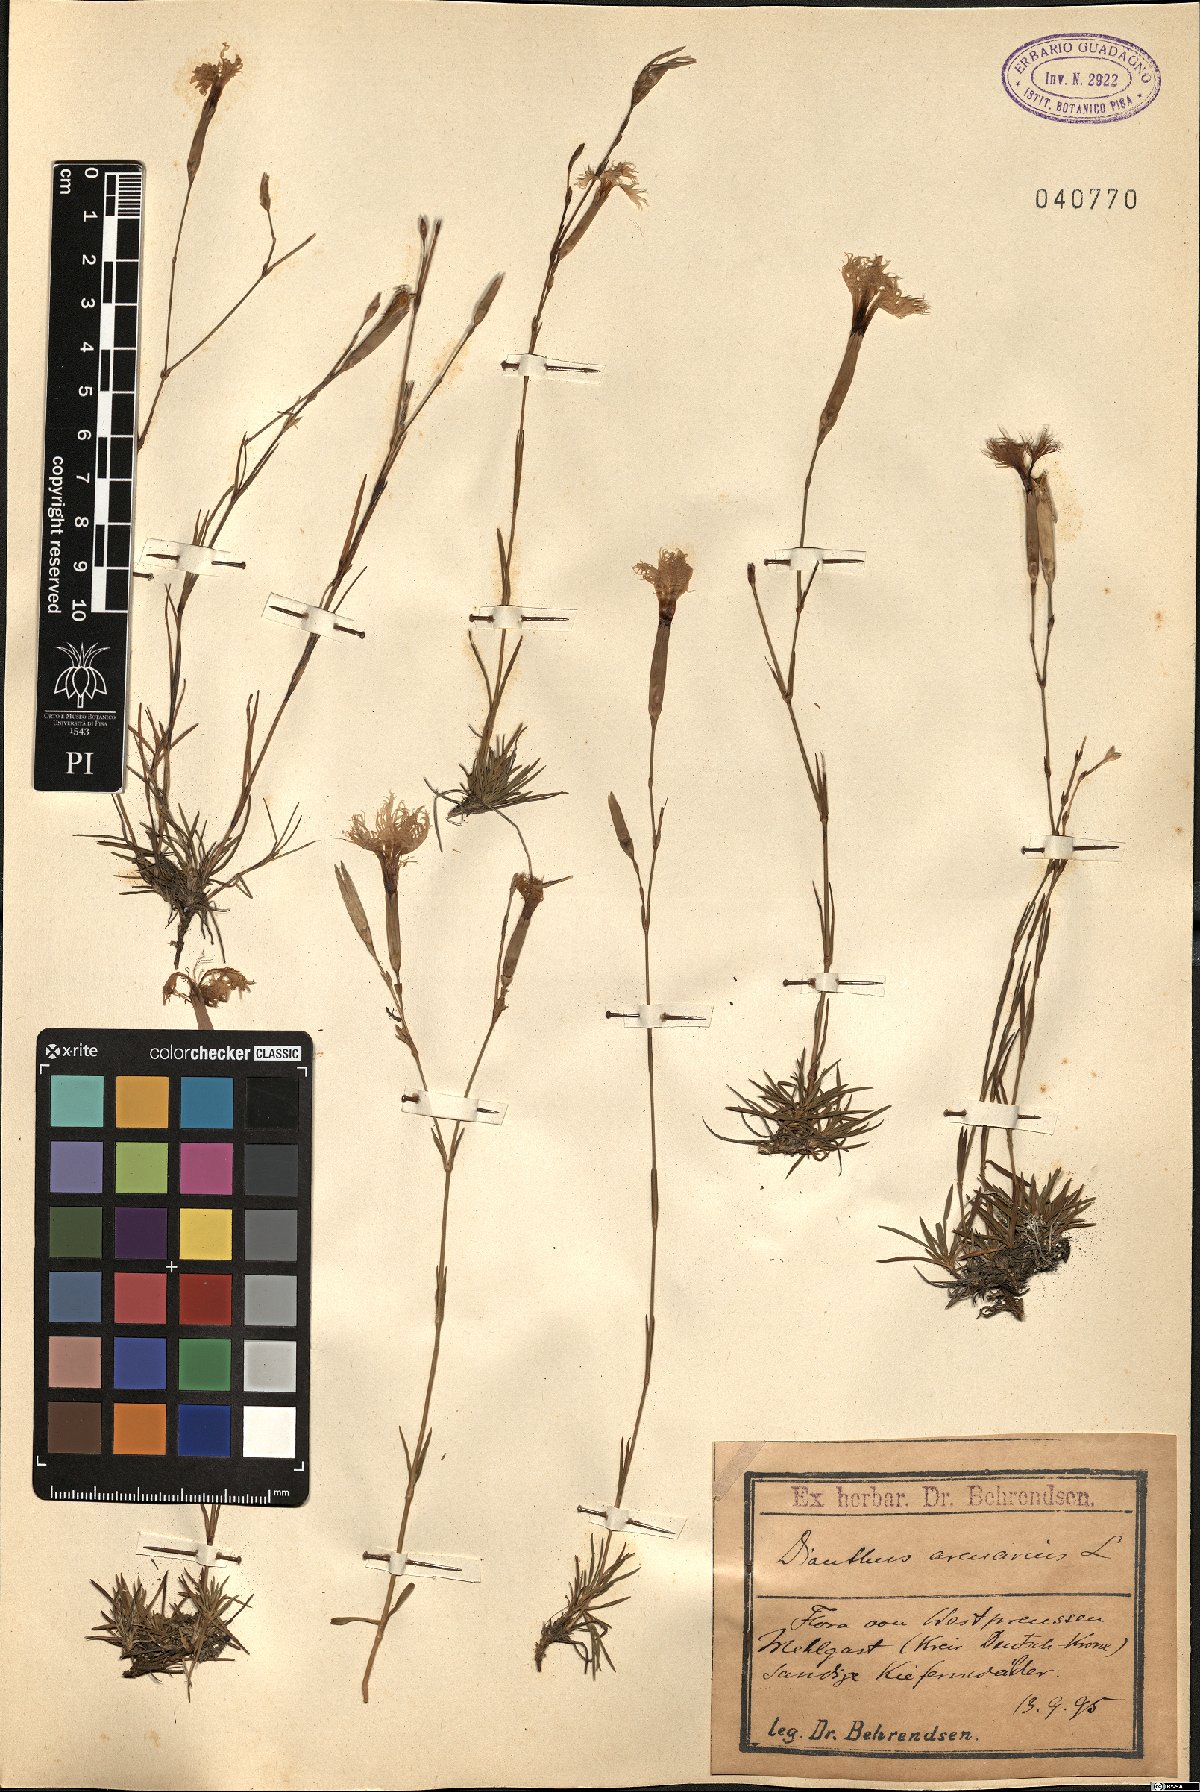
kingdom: Plantae
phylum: Tracheophyta
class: Magnoliopsida
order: Caryophyllales
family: Caryophyllaceae
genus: Dianthus
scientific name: Dianthus arenarius
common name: Stone pink
